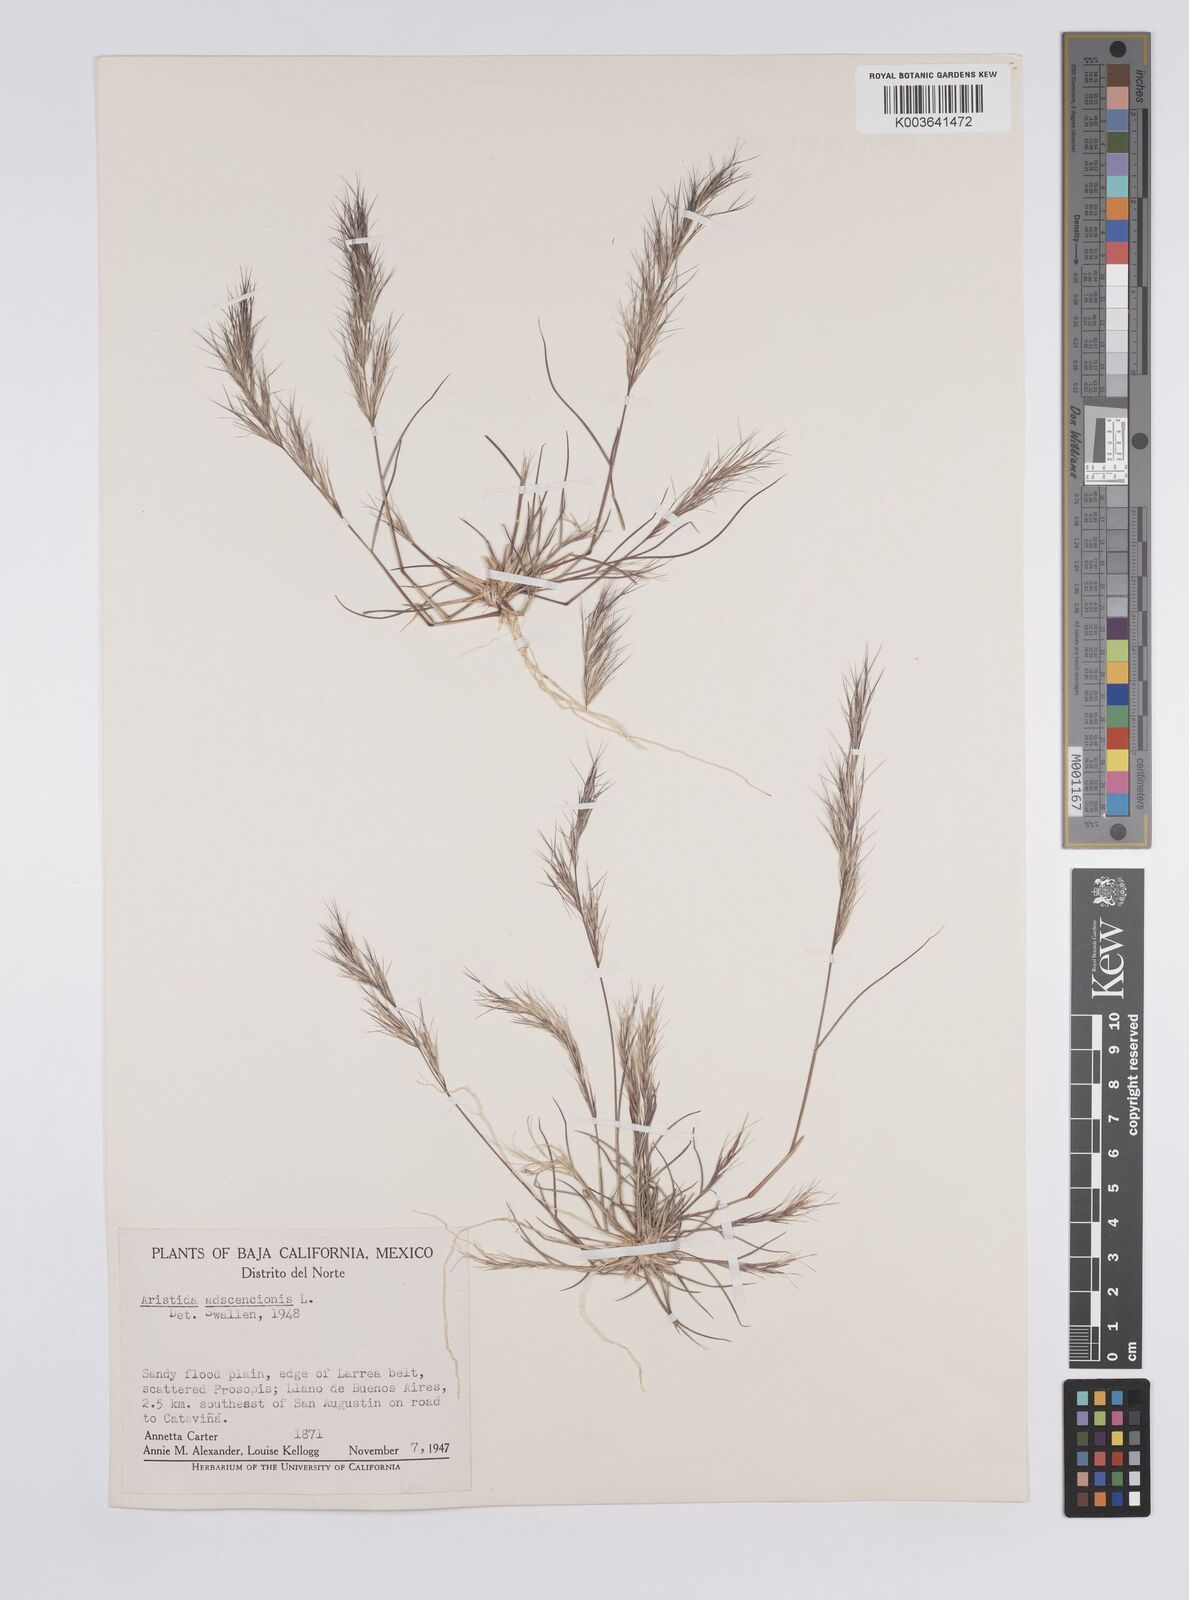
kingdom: Plantae
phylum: Tracheophyta
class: Liliopsida
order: Poales
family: Poaceae
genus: Aristida
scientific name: Aristida adscensionis
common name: Sixweeks threeawn
